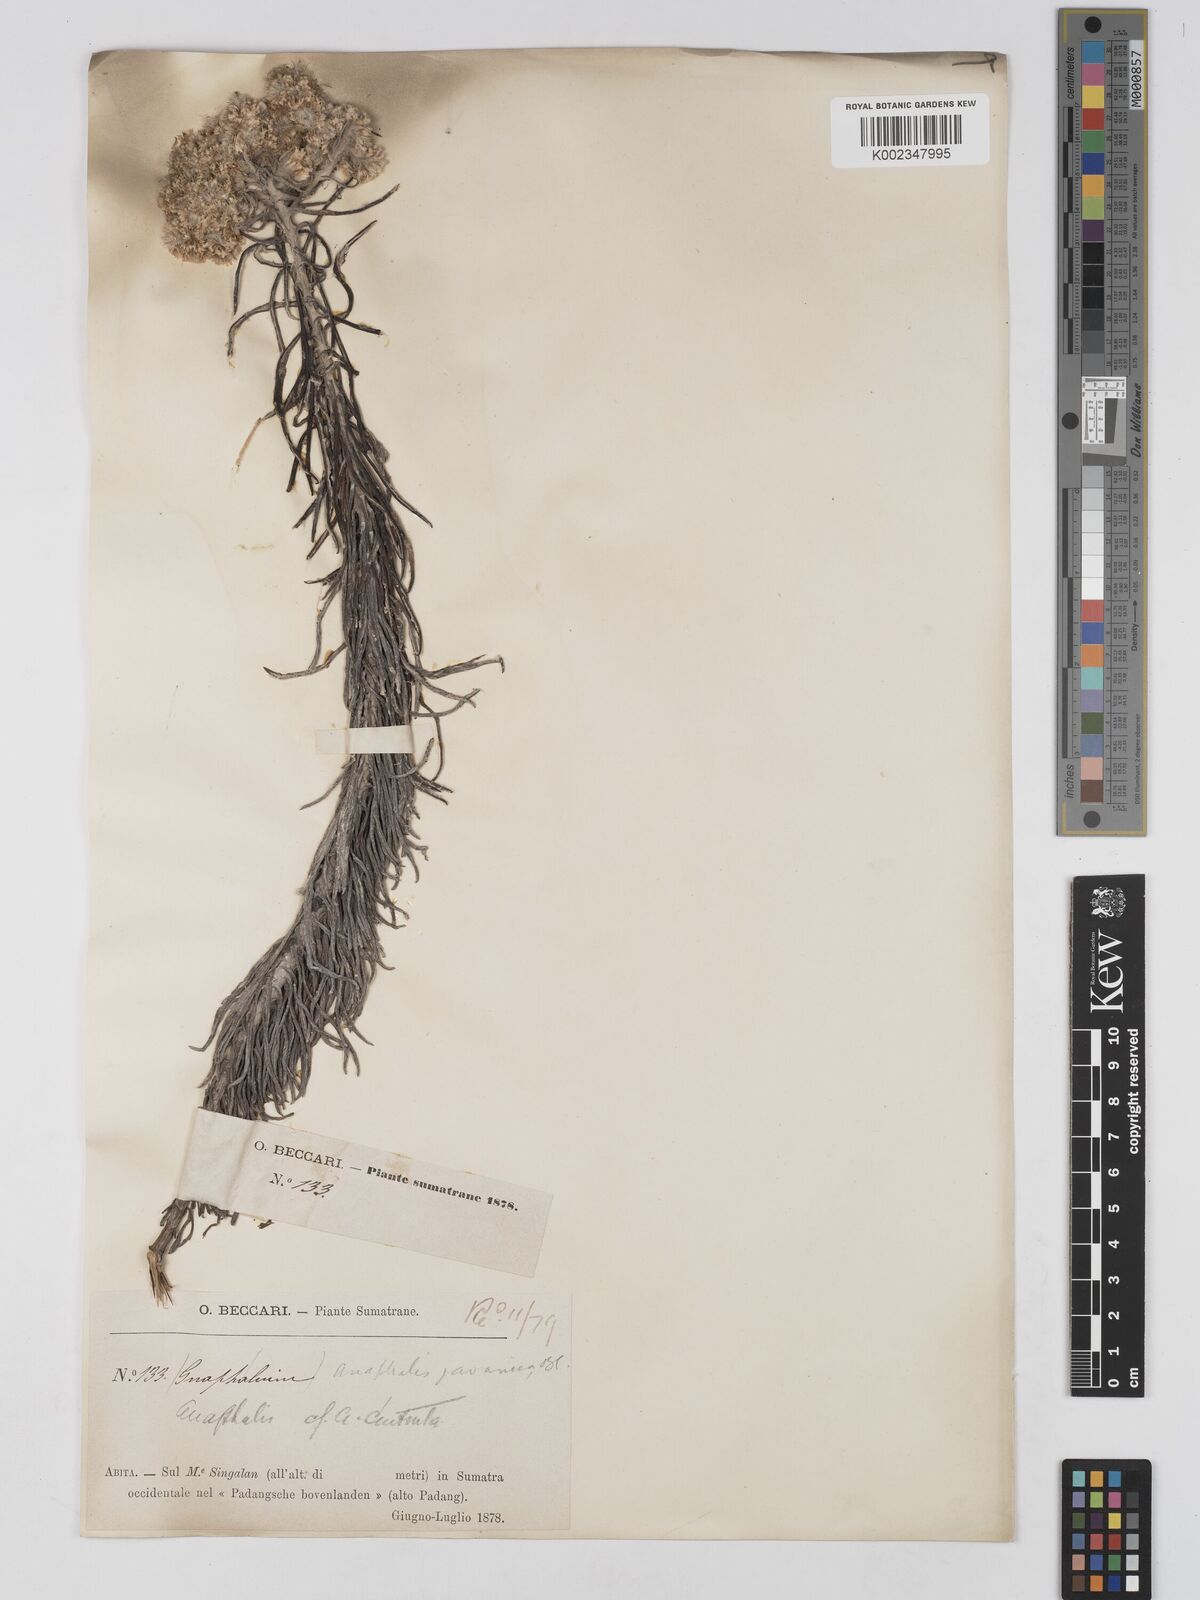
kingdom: Plantae
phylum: Tracheophyta
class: Magnoliopsida
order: Asterales
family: Asteraceae
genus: Anaphalis
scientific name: Anaphalis javanica
